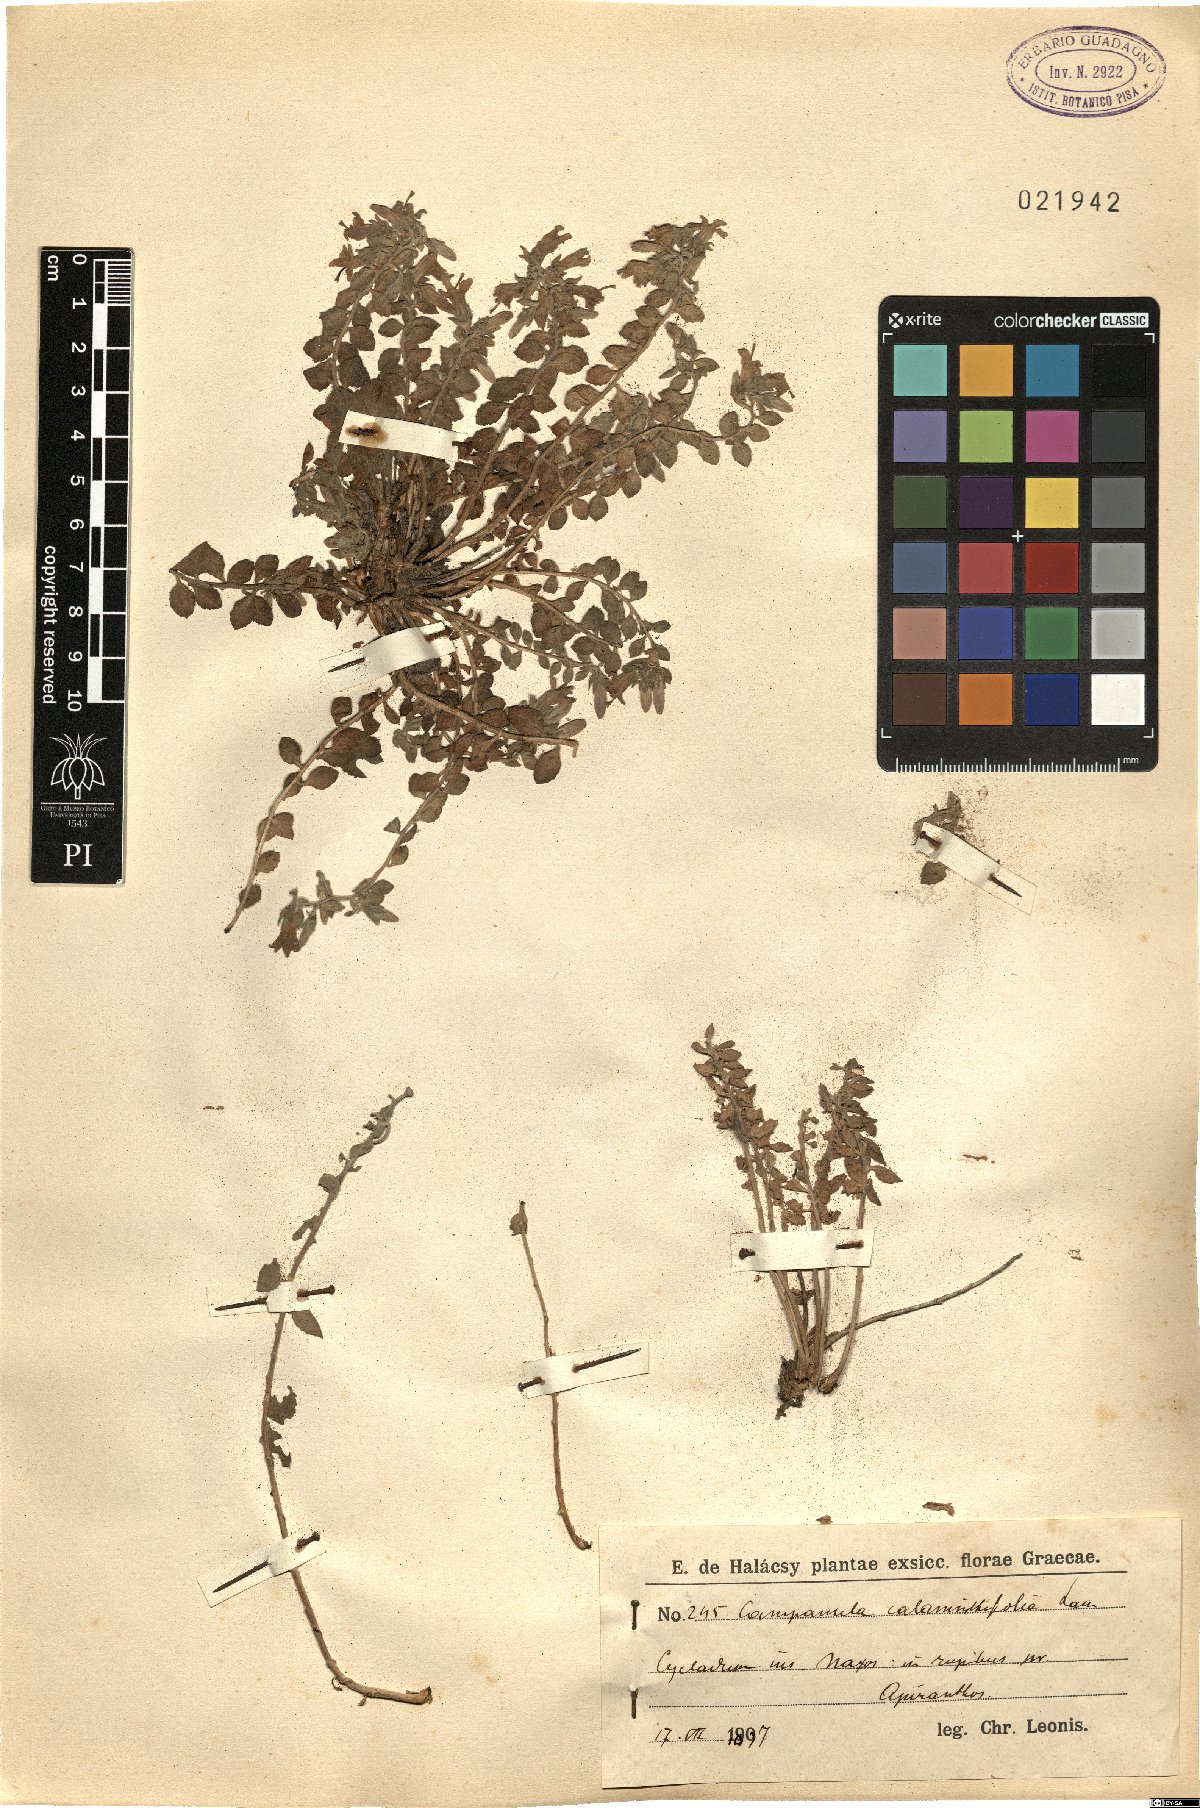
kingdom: Plantae
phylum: Tracheophyta
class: Magnoliopsida
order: Asterales
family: Campanulaceae
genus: Campanula
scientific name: Campanula calaminthifolia
